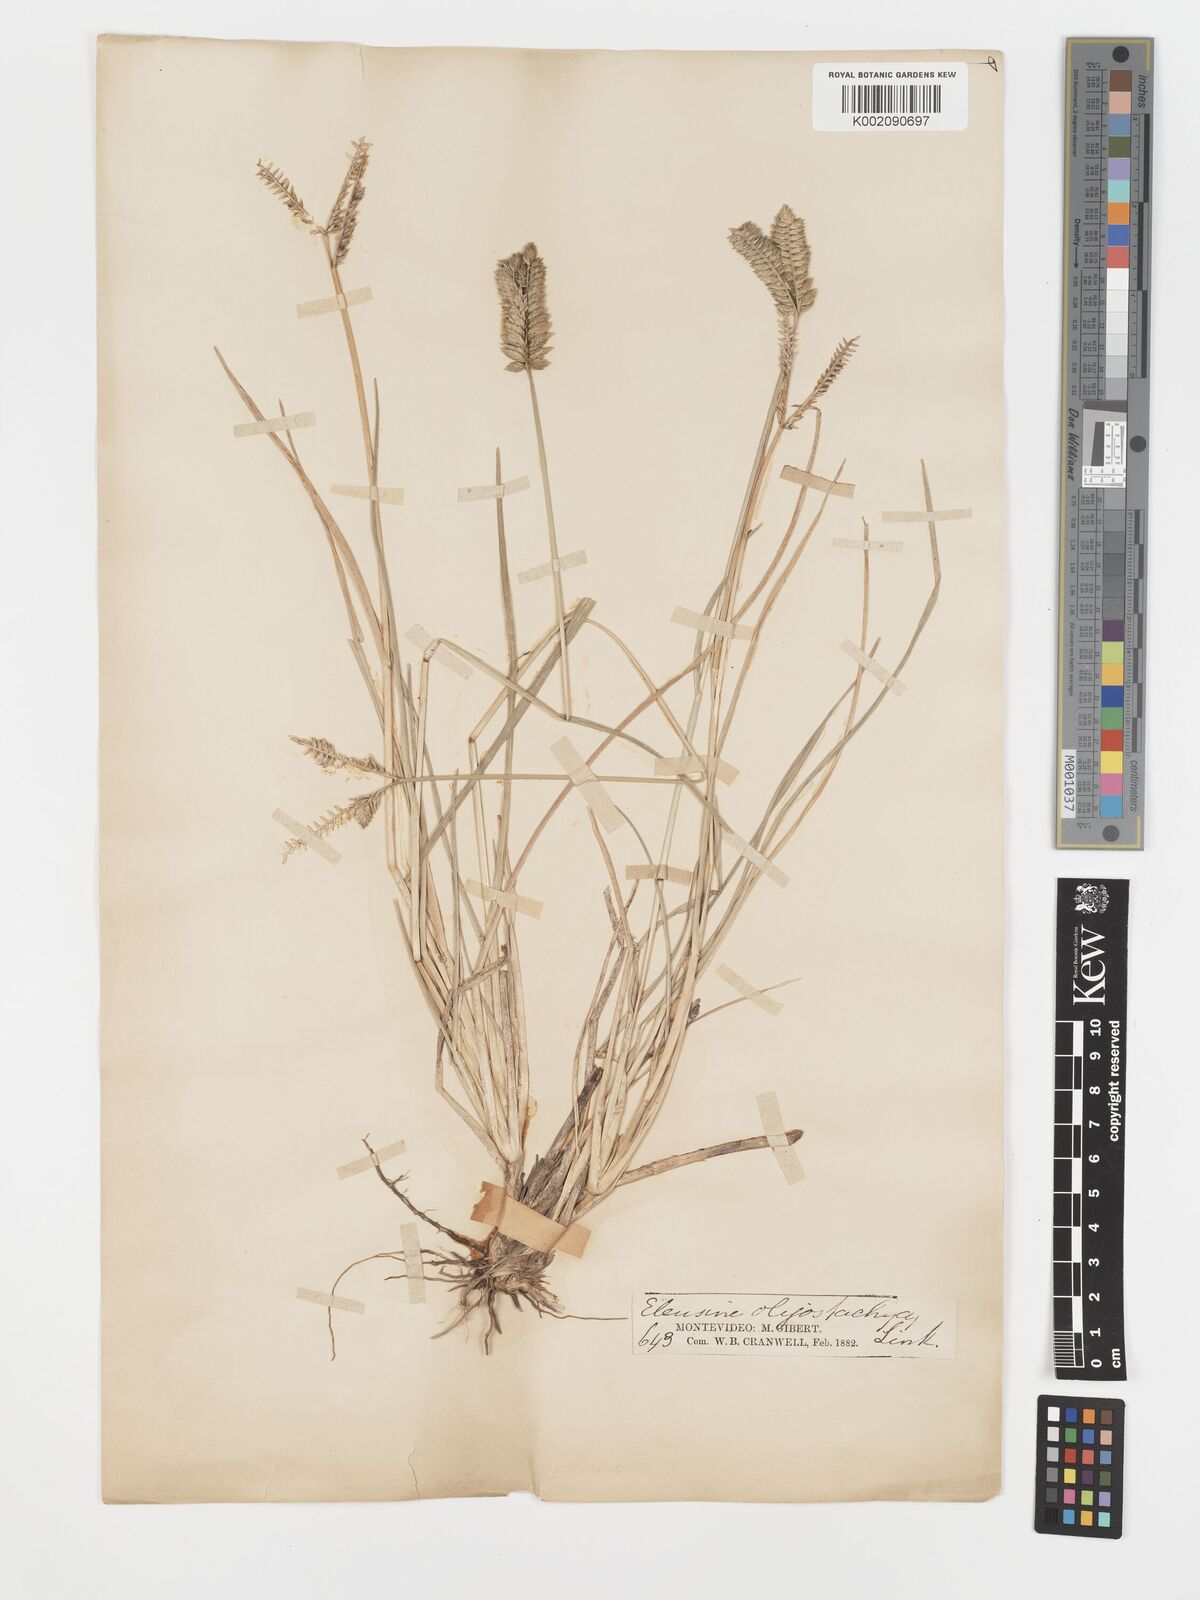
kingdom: Plantae
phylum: Tracheophyta
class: Liliopsida
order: Poales
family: Poaceae
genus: Eleusine
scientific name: Eleusine tristachya
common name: American yard-grass
